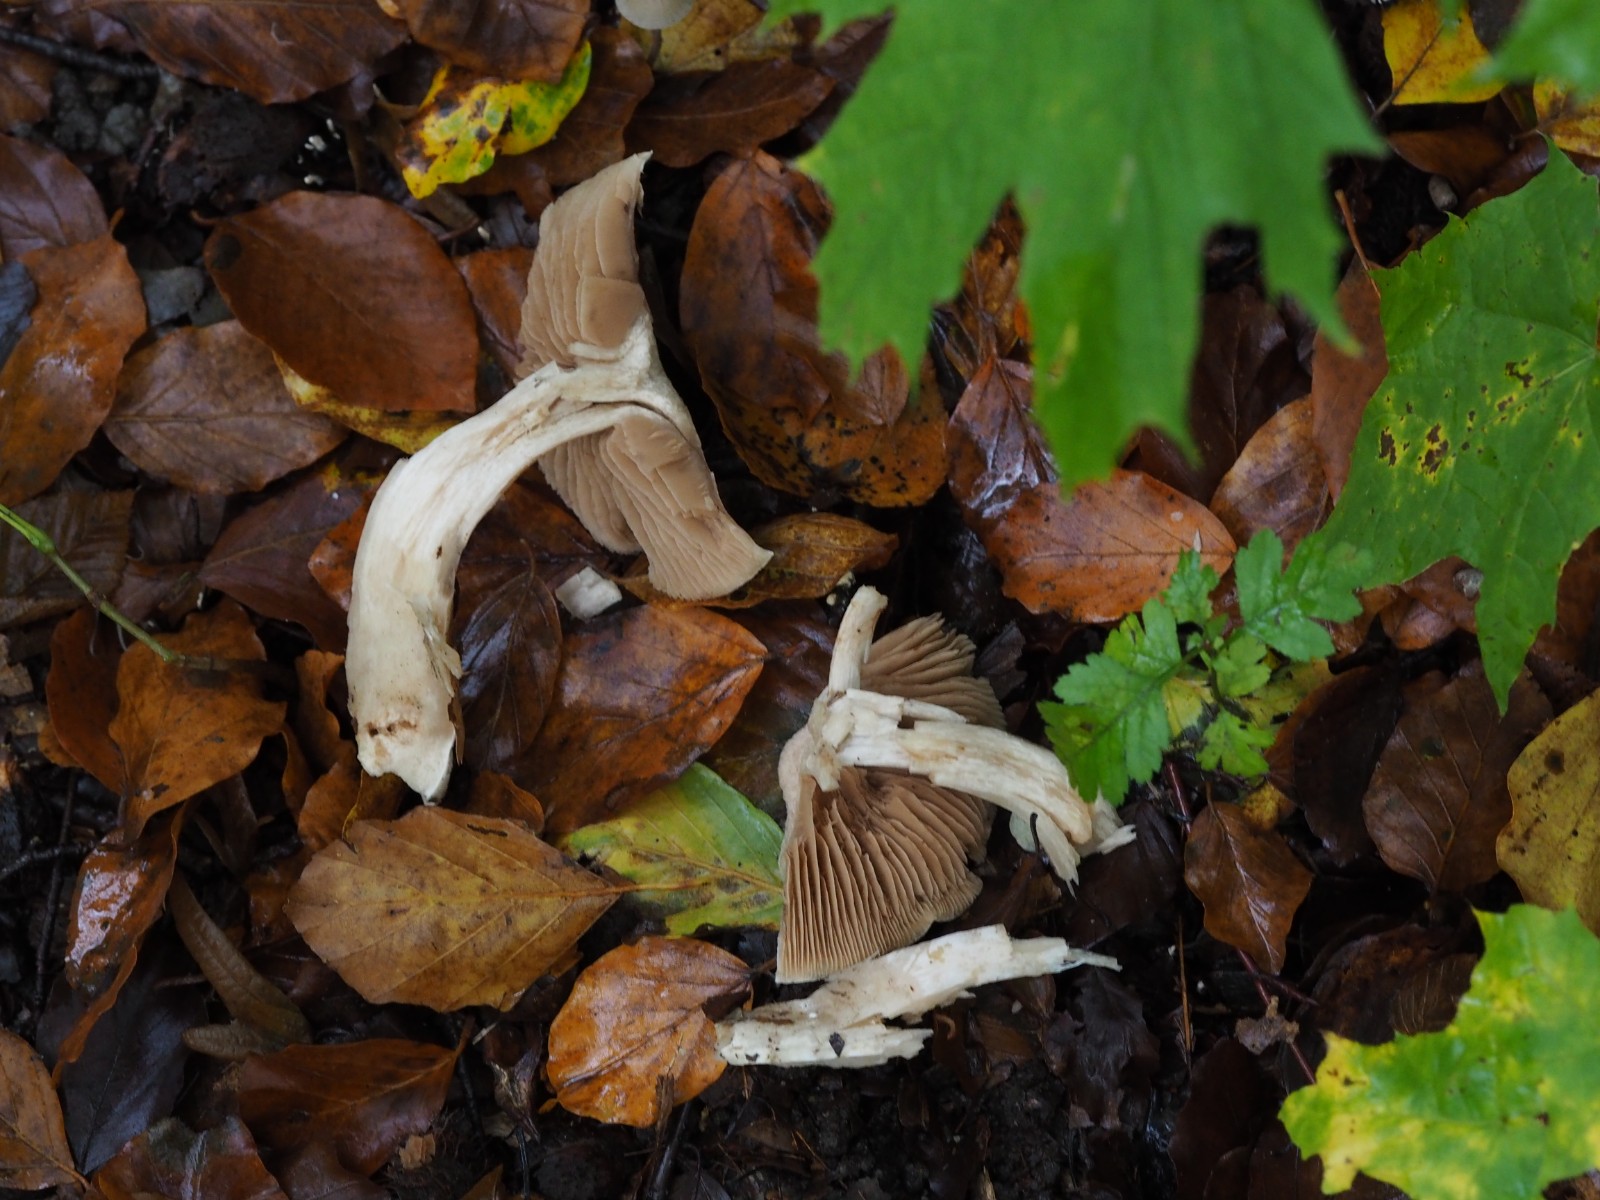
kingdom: Fungi
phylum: Basidiomycota
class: Agaricomycetes
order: Agaricales
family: Cortinariaceae
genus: Cortinarius
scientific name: Cortinarius
